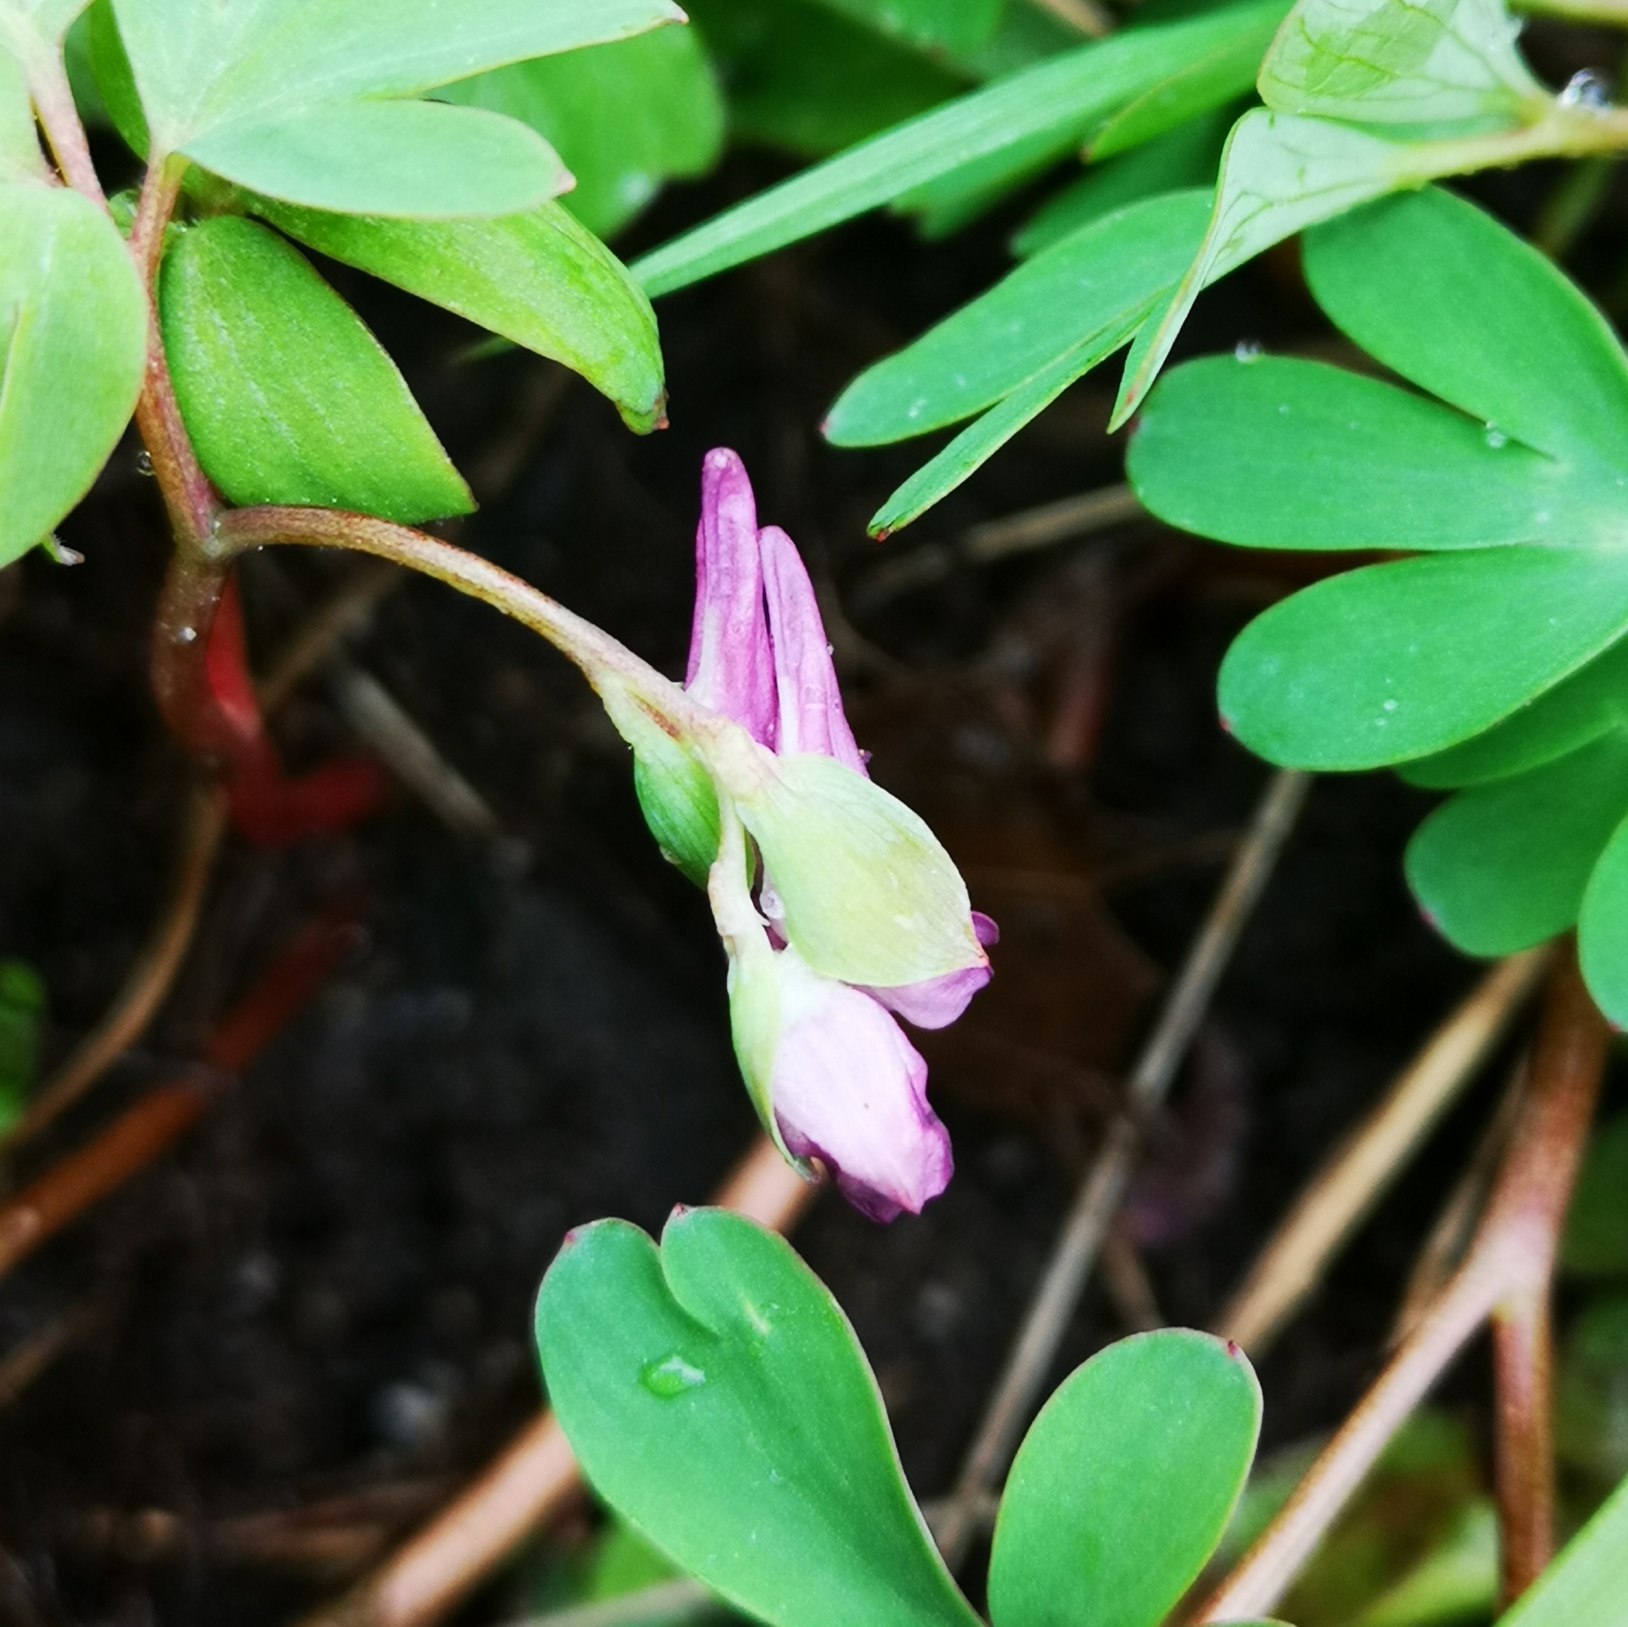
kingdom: Plantae
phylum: Tracheophyta
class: Magnoliopsida
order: Ranunculales
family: Papaveraceae
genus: Corydalis
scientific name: Corydalis intermedia
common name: Liden lærkespore
